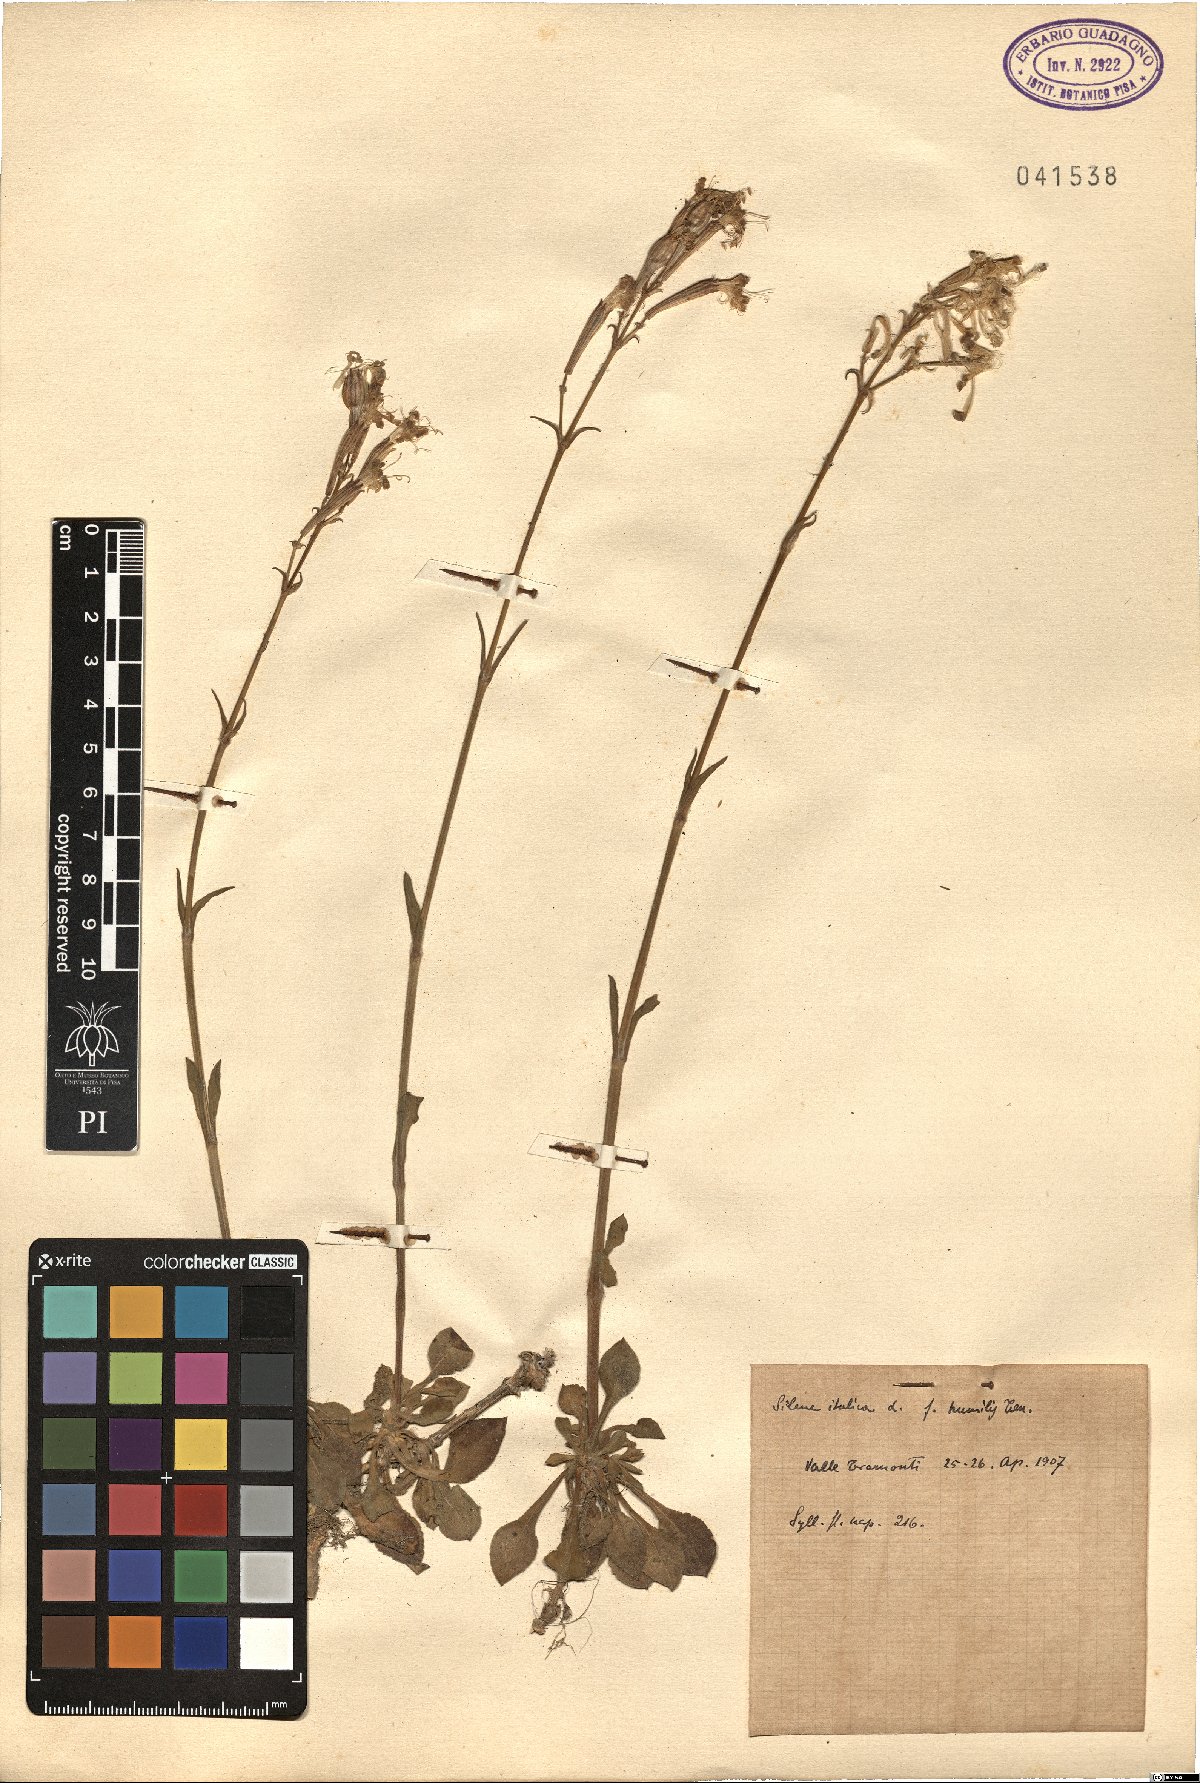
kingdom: Plantae
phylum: Tracheophyta
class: Magnoliopsida
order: Caryophyllales
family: Caryophyllaceae
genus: Silene
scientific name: Silene italica
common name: Italian catchfly
